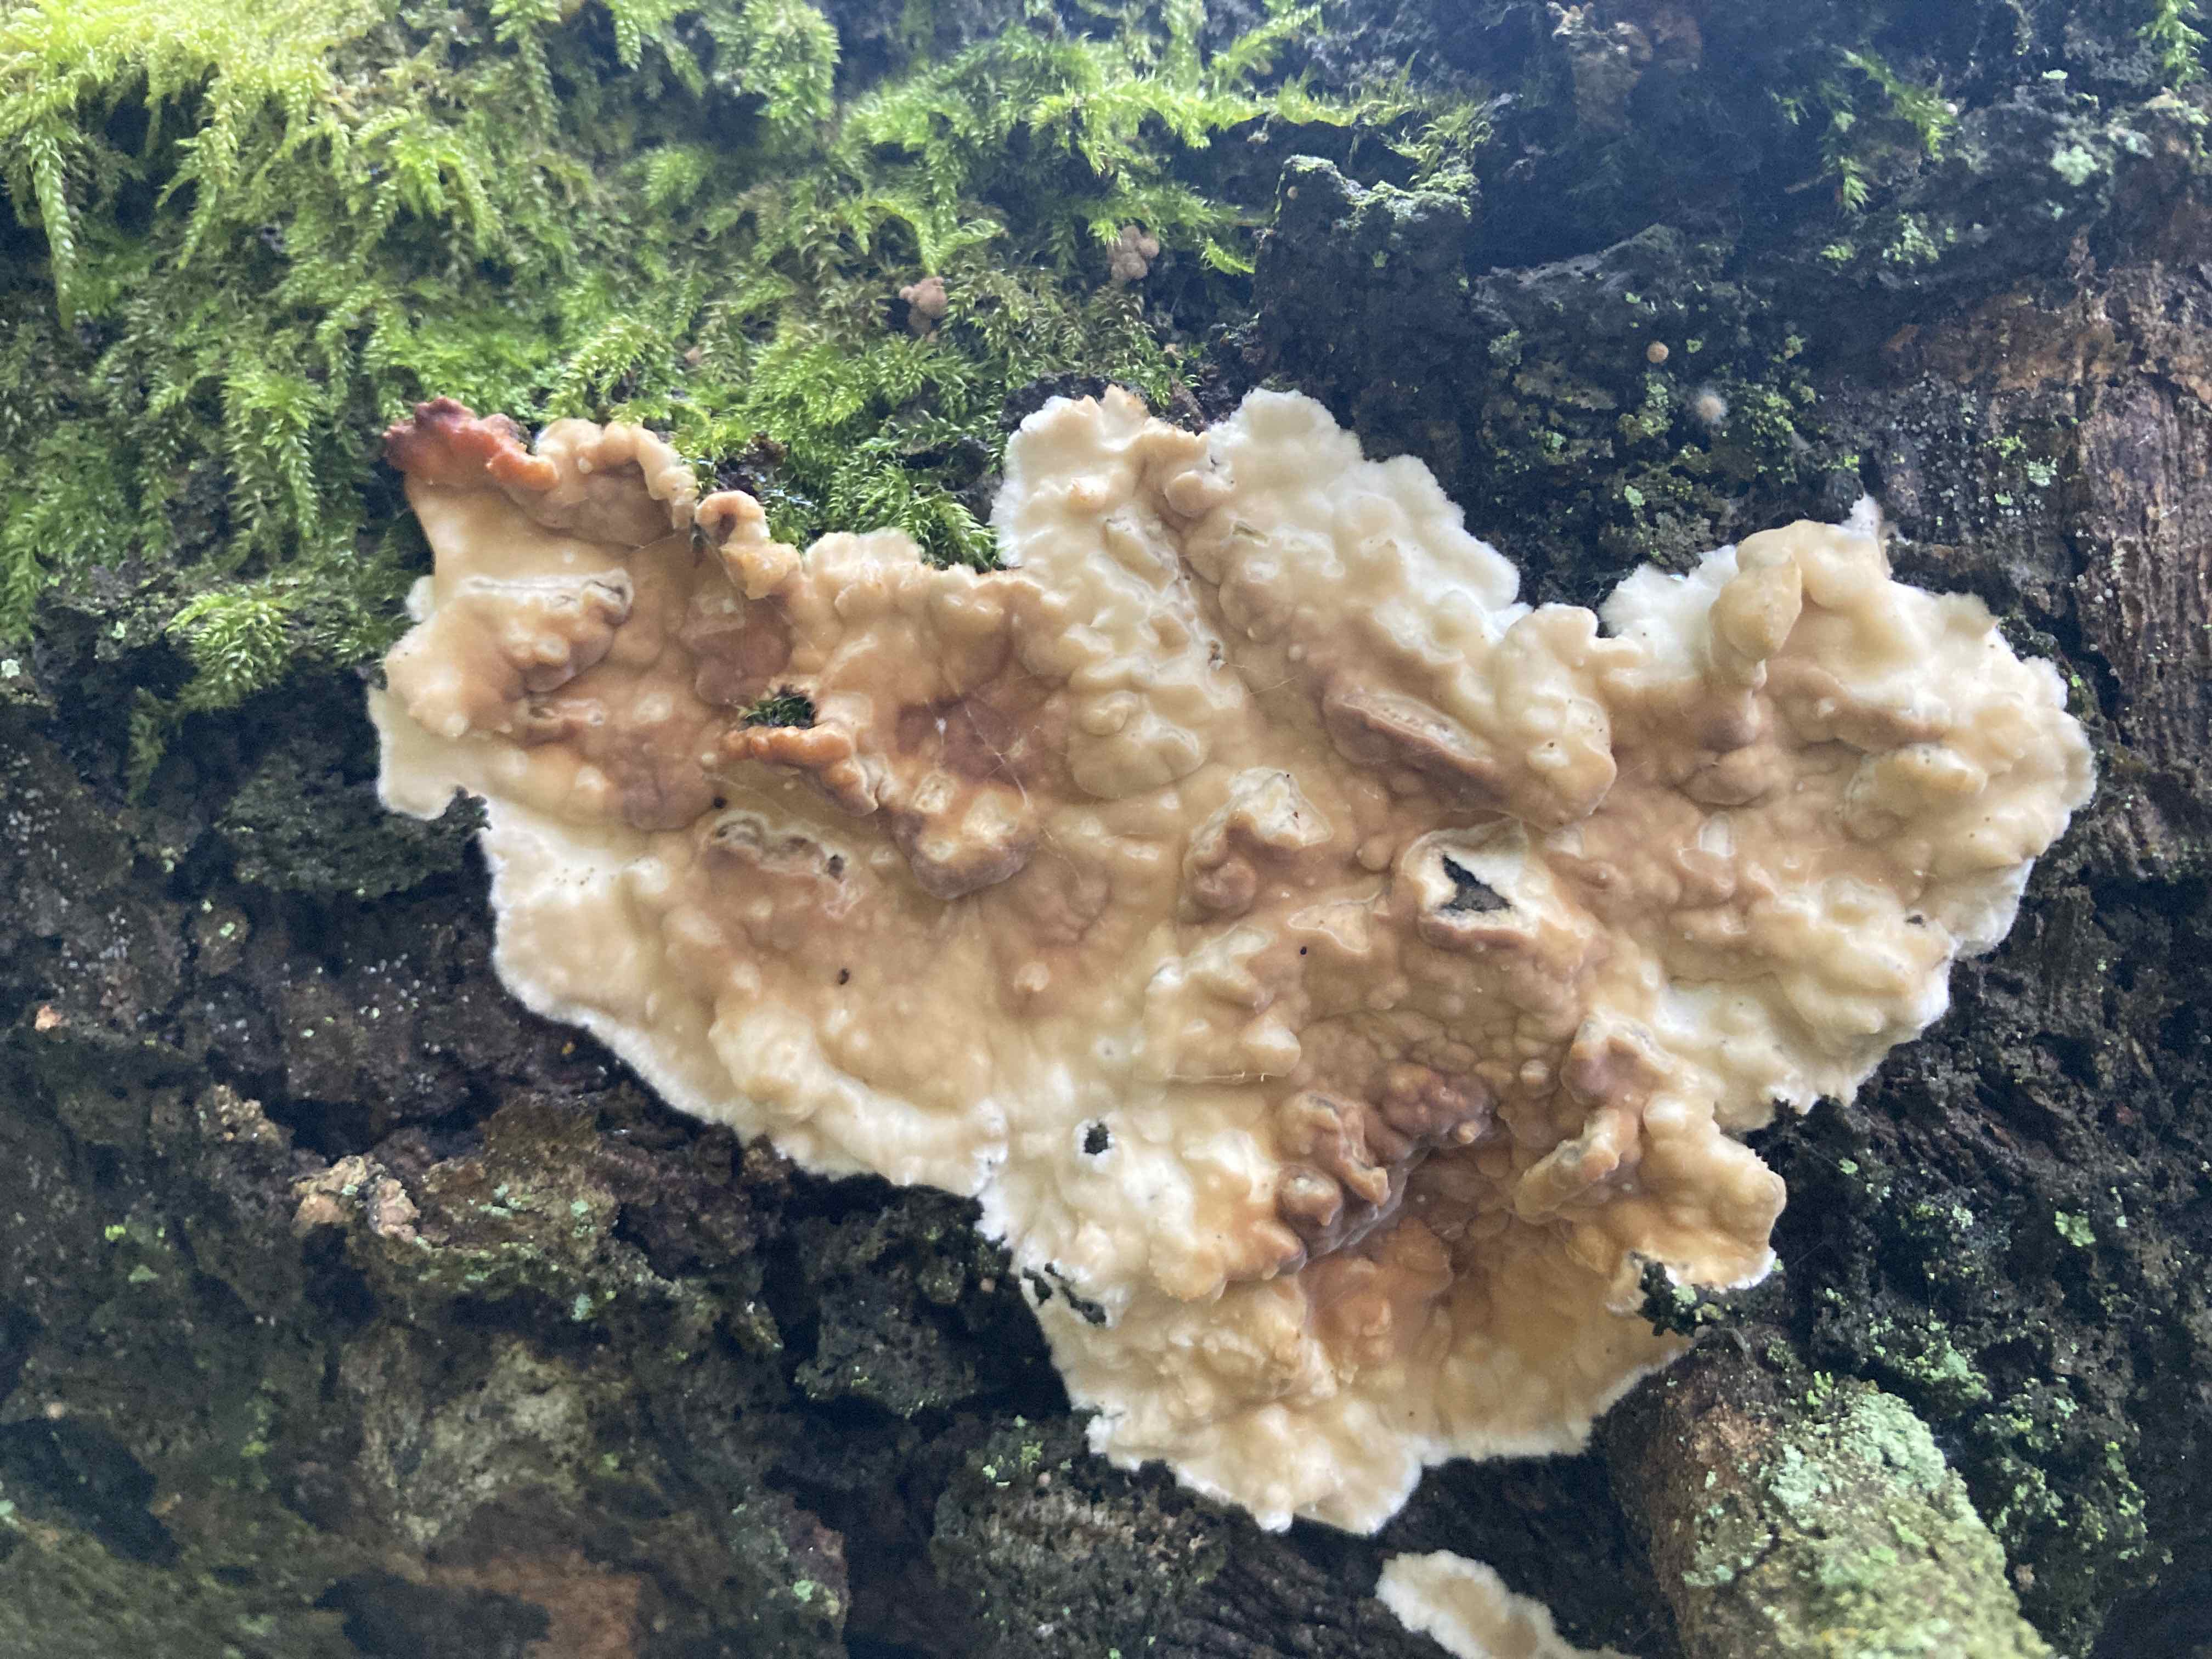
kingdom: Fungi
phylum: Basidiomycota
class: Agaricomycetes
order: Polyporales
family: Dacryobolaceae
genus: Dacryobolus
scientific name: Dacryobolus karstenii
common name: glat vulkanskorpe
